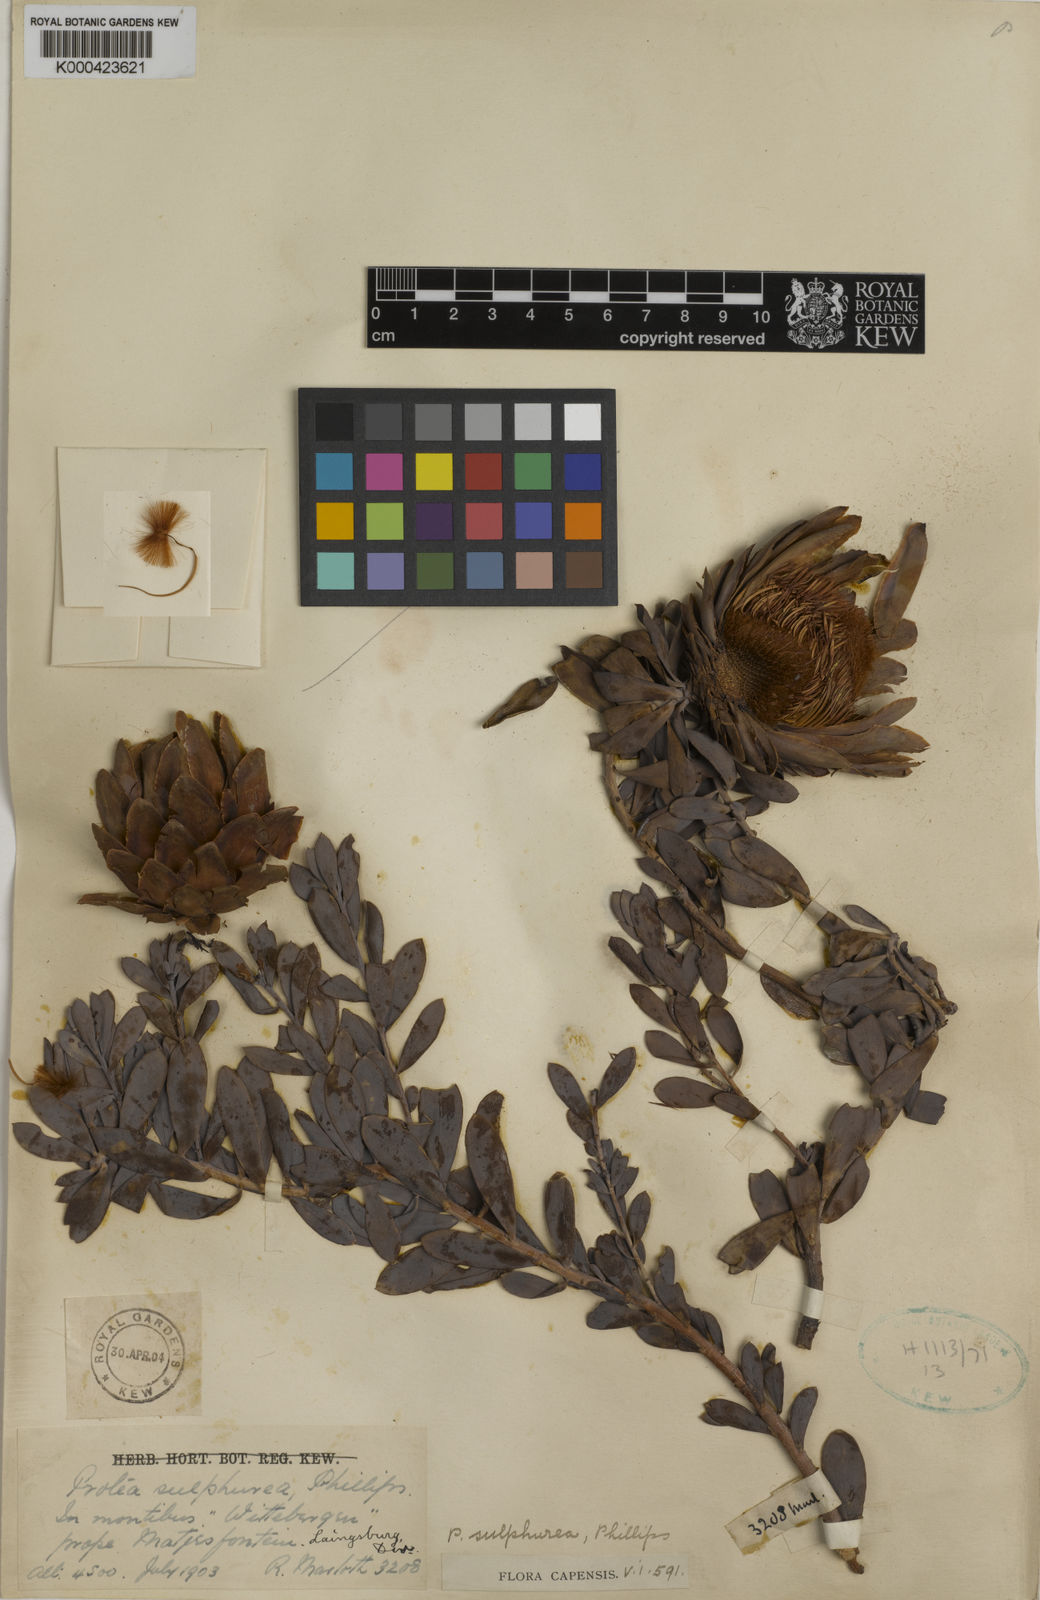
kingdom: Plantae
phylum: Tracheophyta
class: Magnoliopsida
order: Proteales
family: Proteaceae
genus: Protea
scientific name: Protea sulphurea
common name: Sulphur sugarbush
